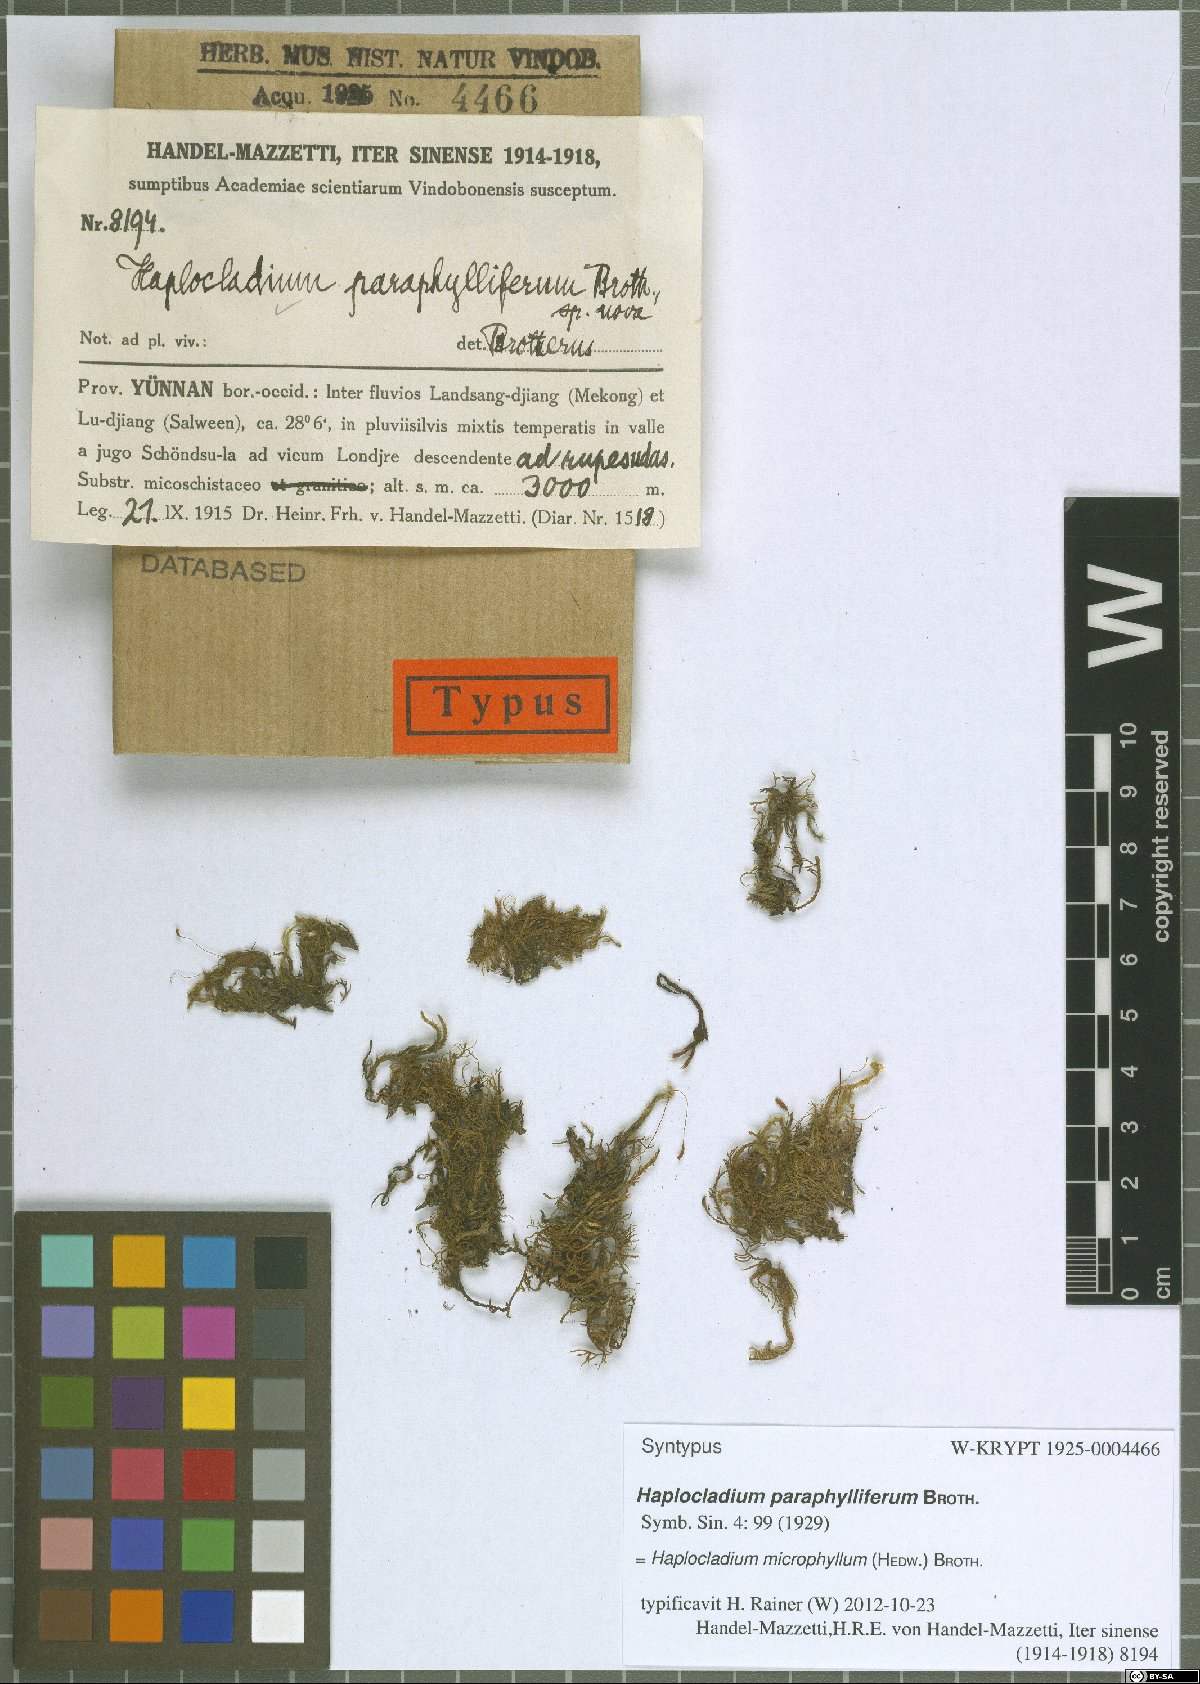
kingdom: Plantae
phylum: Bryophyta
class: Bryopsida
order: Hypnales
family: Leskeaceae
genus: Haplocladium
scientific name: Haplocladium microphyllum
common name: Tiny-leaved haplocladium
